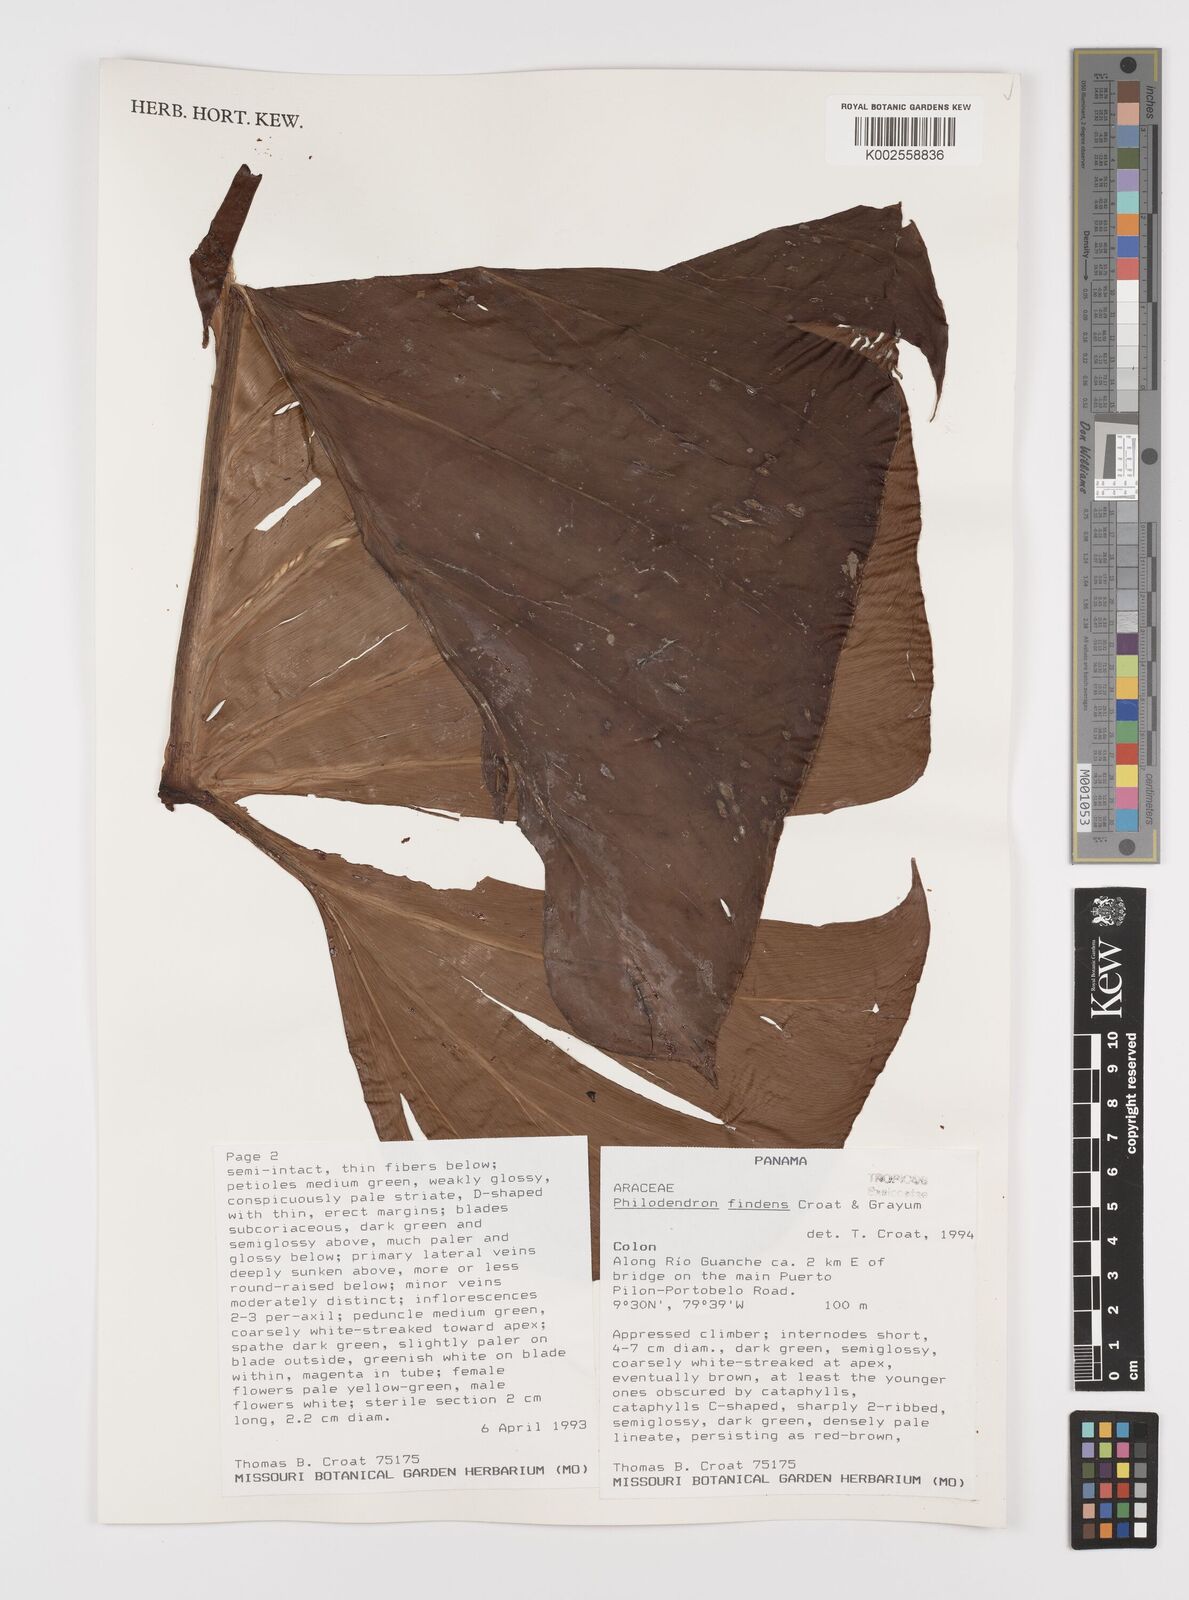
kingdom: Plantae
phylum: Tracheophyta
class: Liliopsida
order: Alismatales
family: Araceae
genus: Philodendron
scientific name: Philodendron findens
